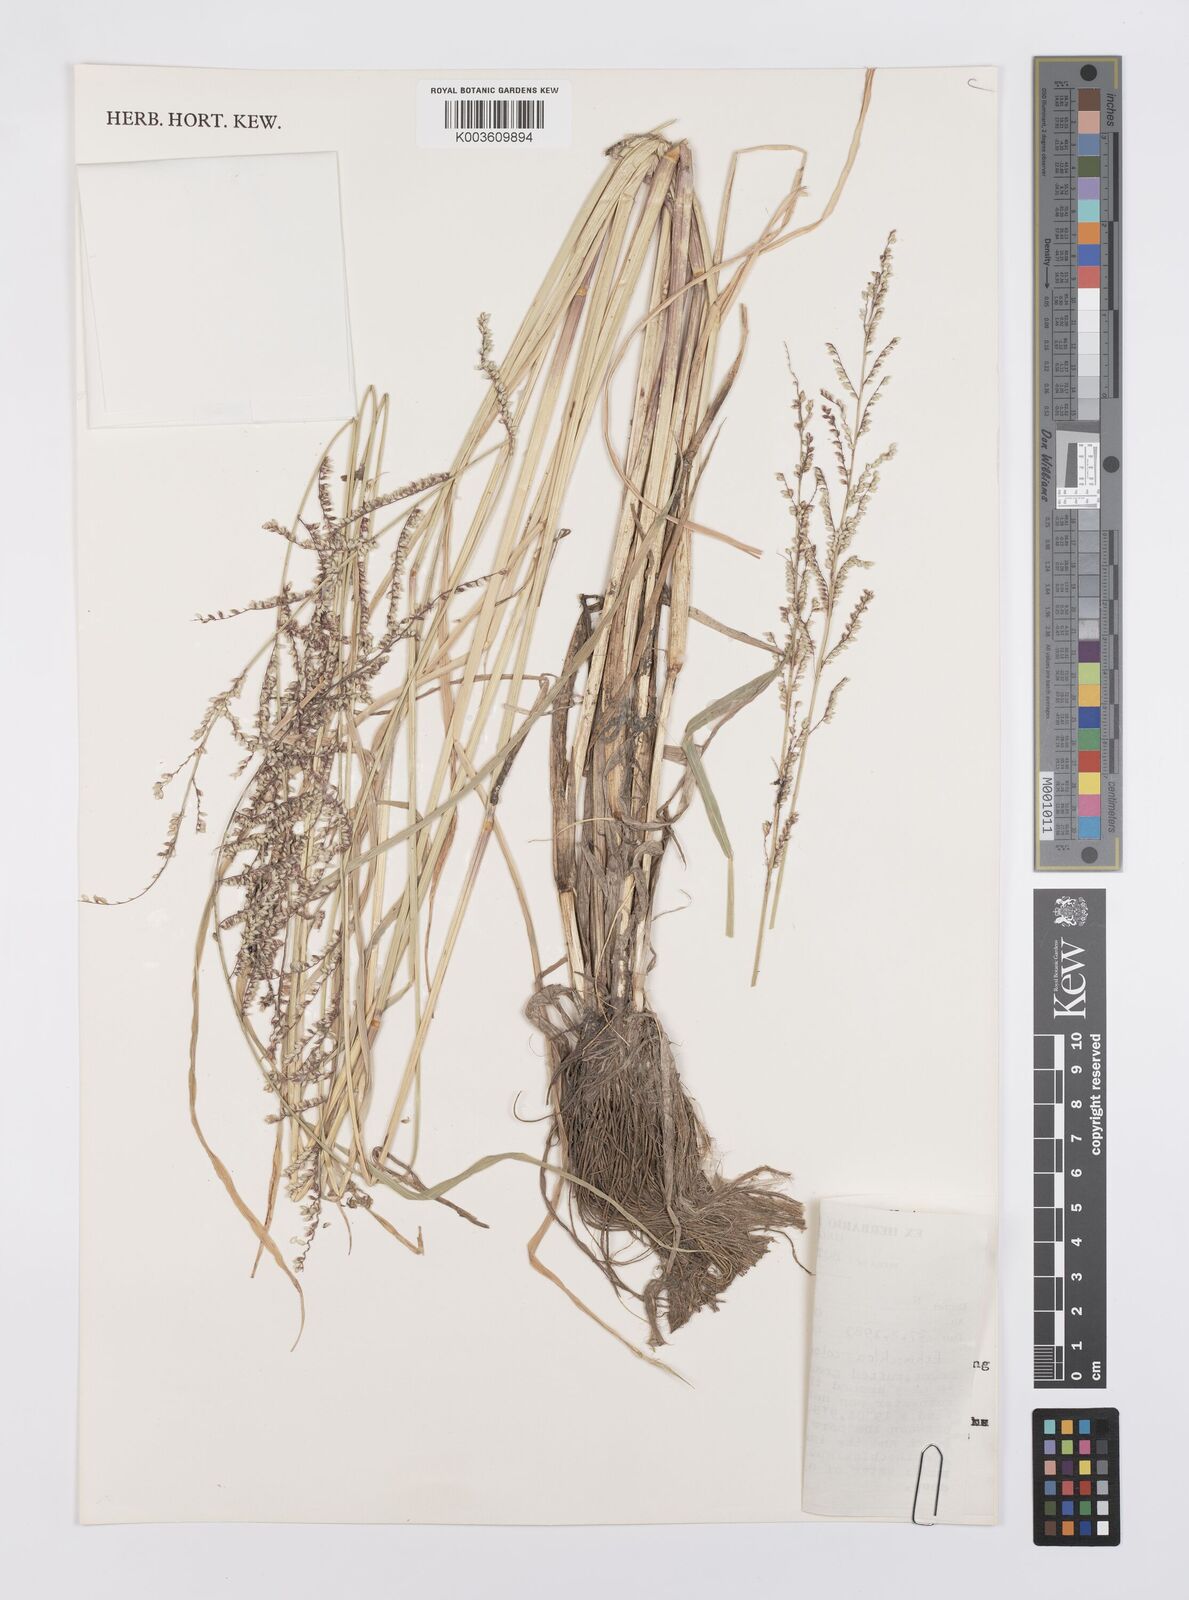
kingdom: Plantae
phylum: Tracheophyta
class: Liliopsida
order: Poales
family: Poaceae
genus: Echinochloa
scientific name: Echinochloa colonum
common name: Jungle rice
